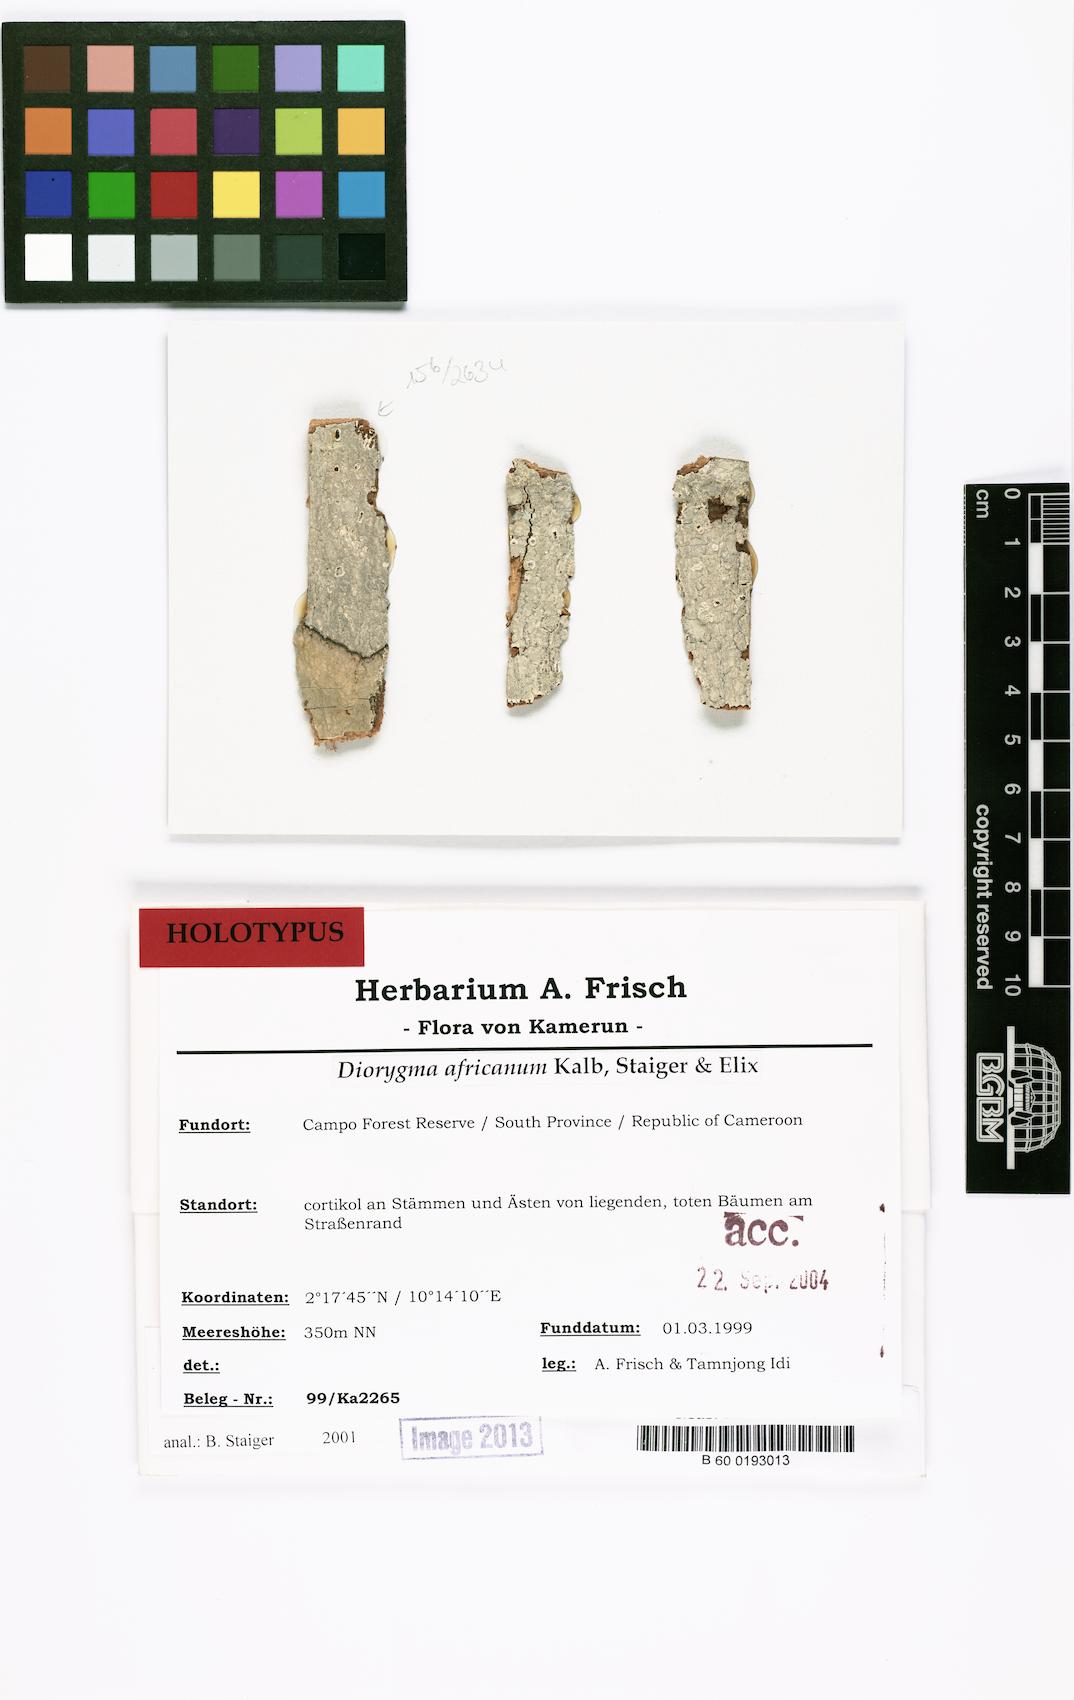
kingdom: Fungi
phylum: Ascomycota
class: Lecanoromycetes
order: Ostropales
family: Graphidaceae
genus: Diorygma
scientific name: Diorygma africanum
